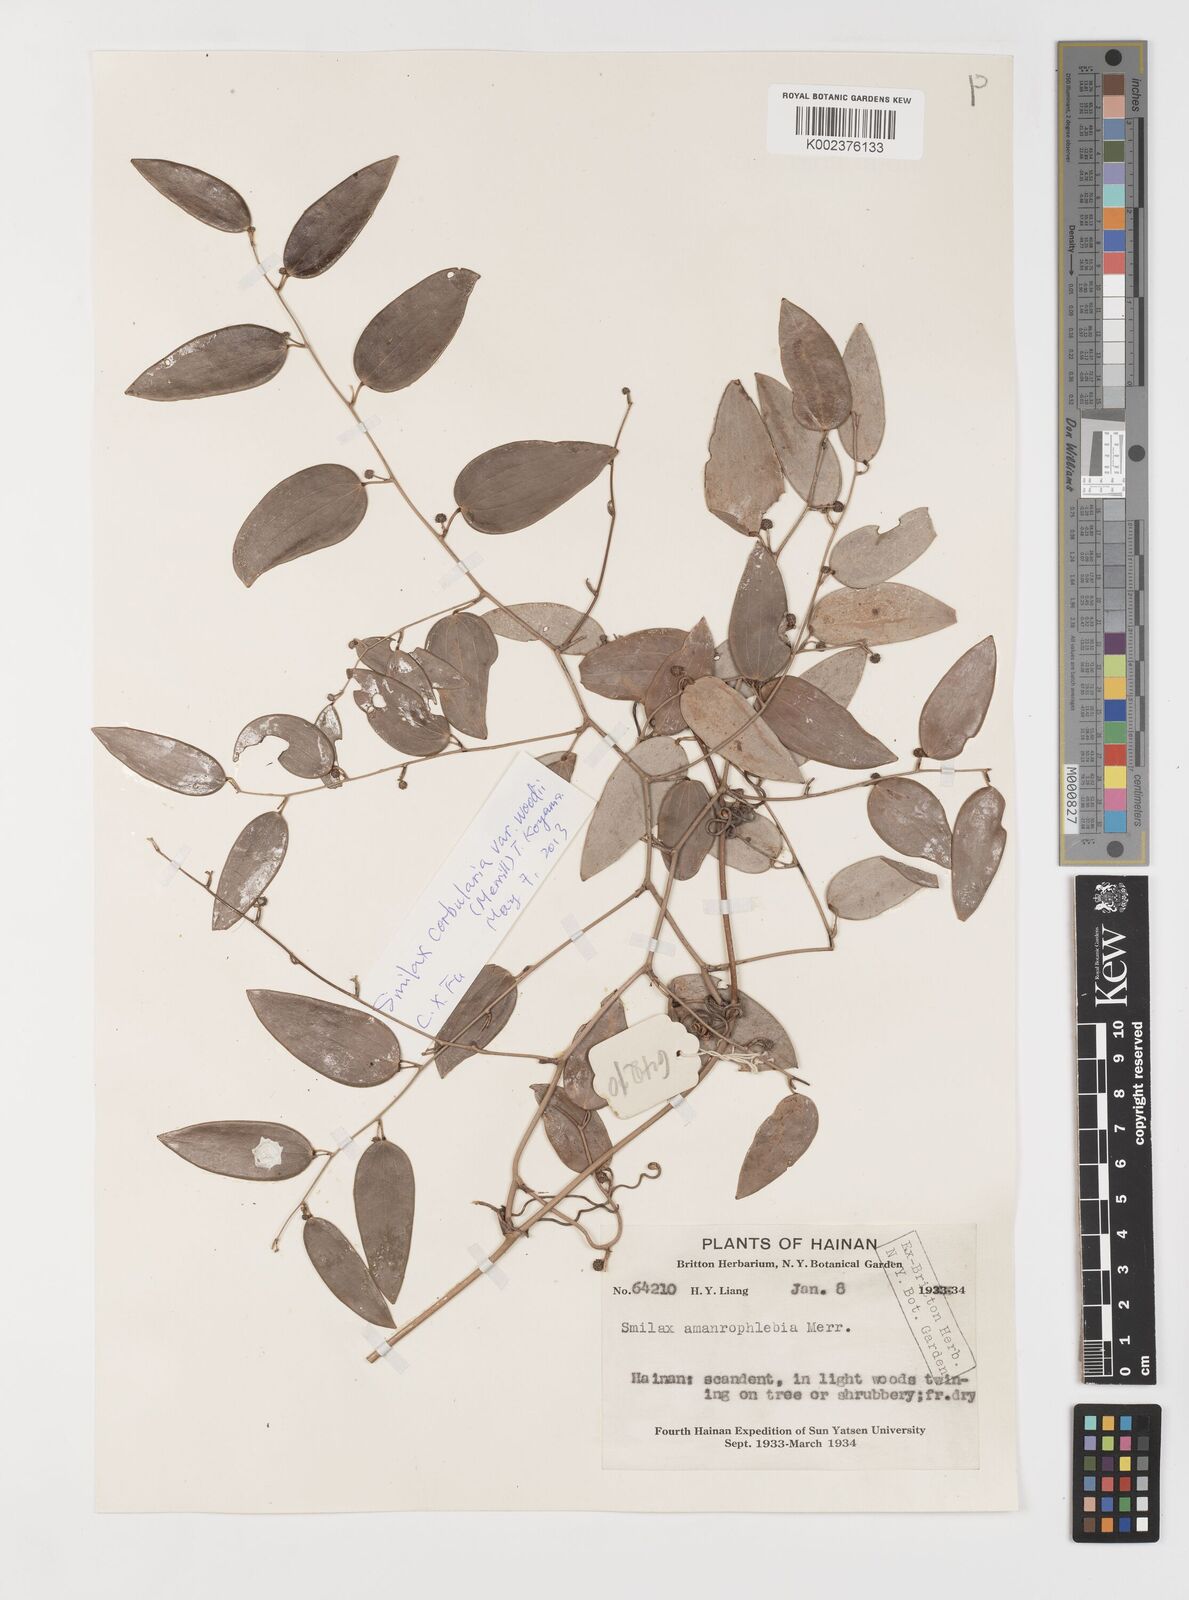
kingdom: Plantae
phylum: Tracheophyta
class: Liliopsida
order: Liliales
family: Smilacaceae
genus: Smilax
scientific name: Smilax corbularia
